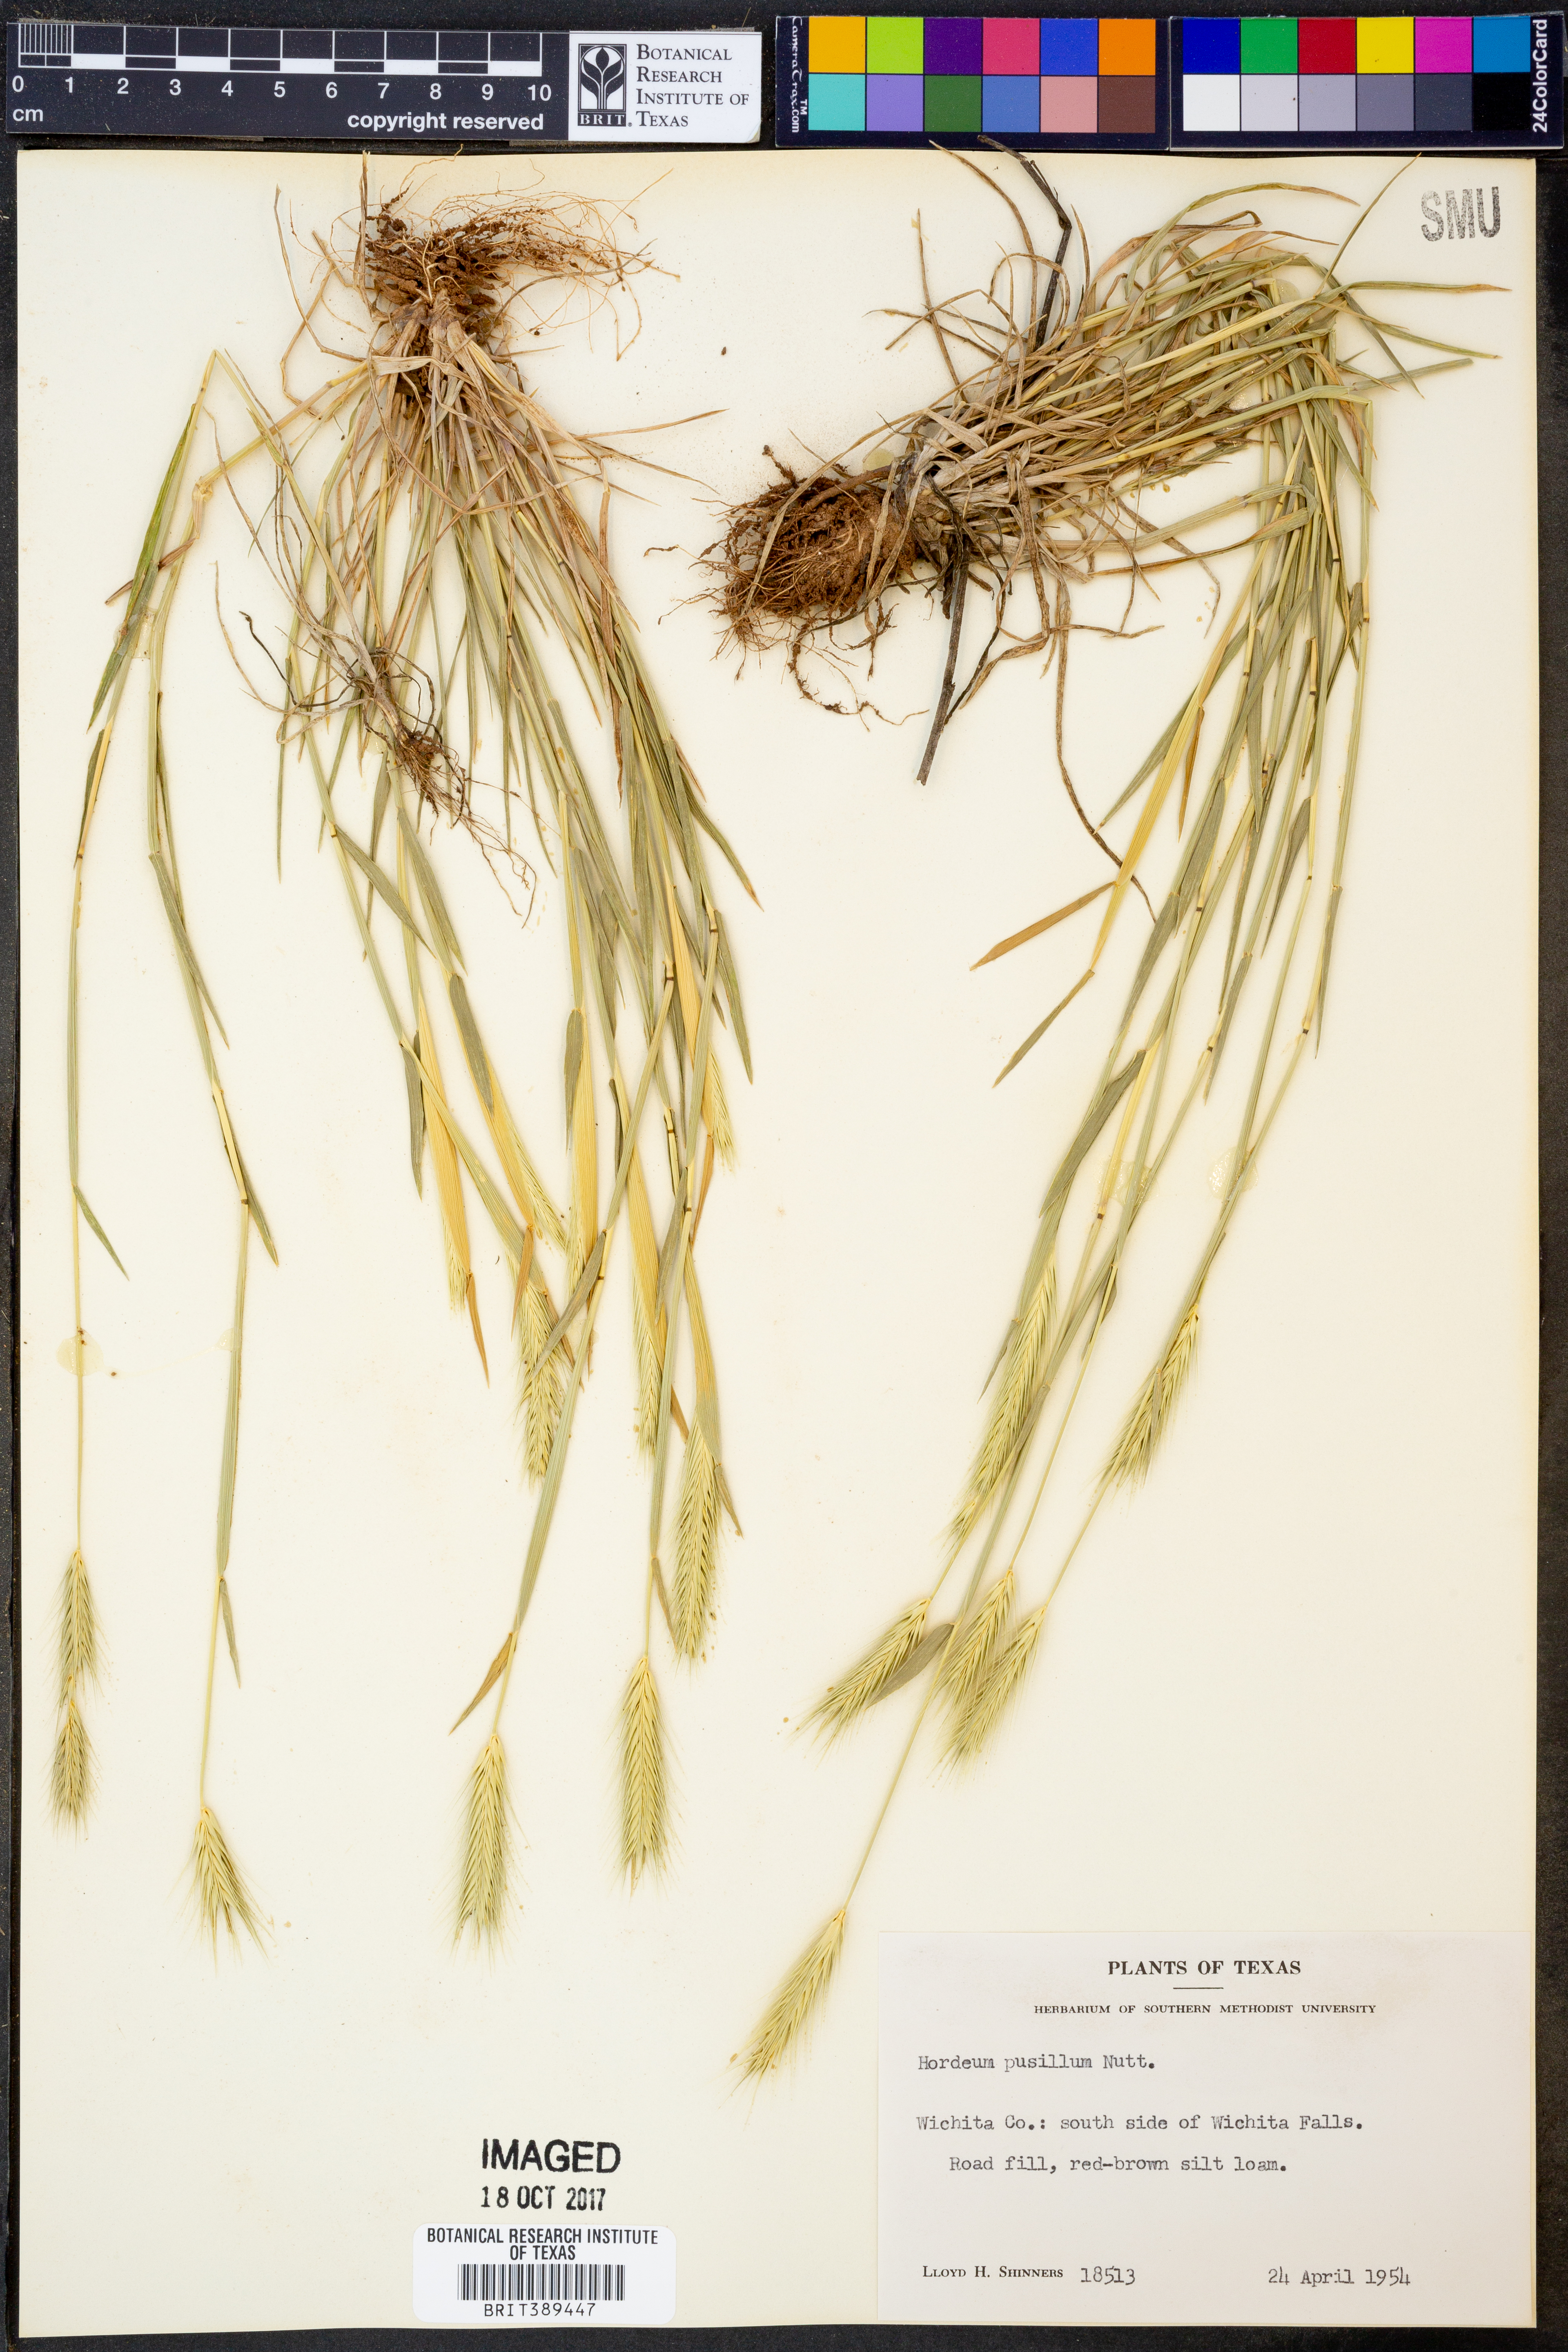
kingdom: Plantae
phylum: Tracheophyta
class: Liliopsida
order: Poales
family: Poaceae
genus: Hordeum
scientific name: Hordeum pusillum
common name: Little barley
